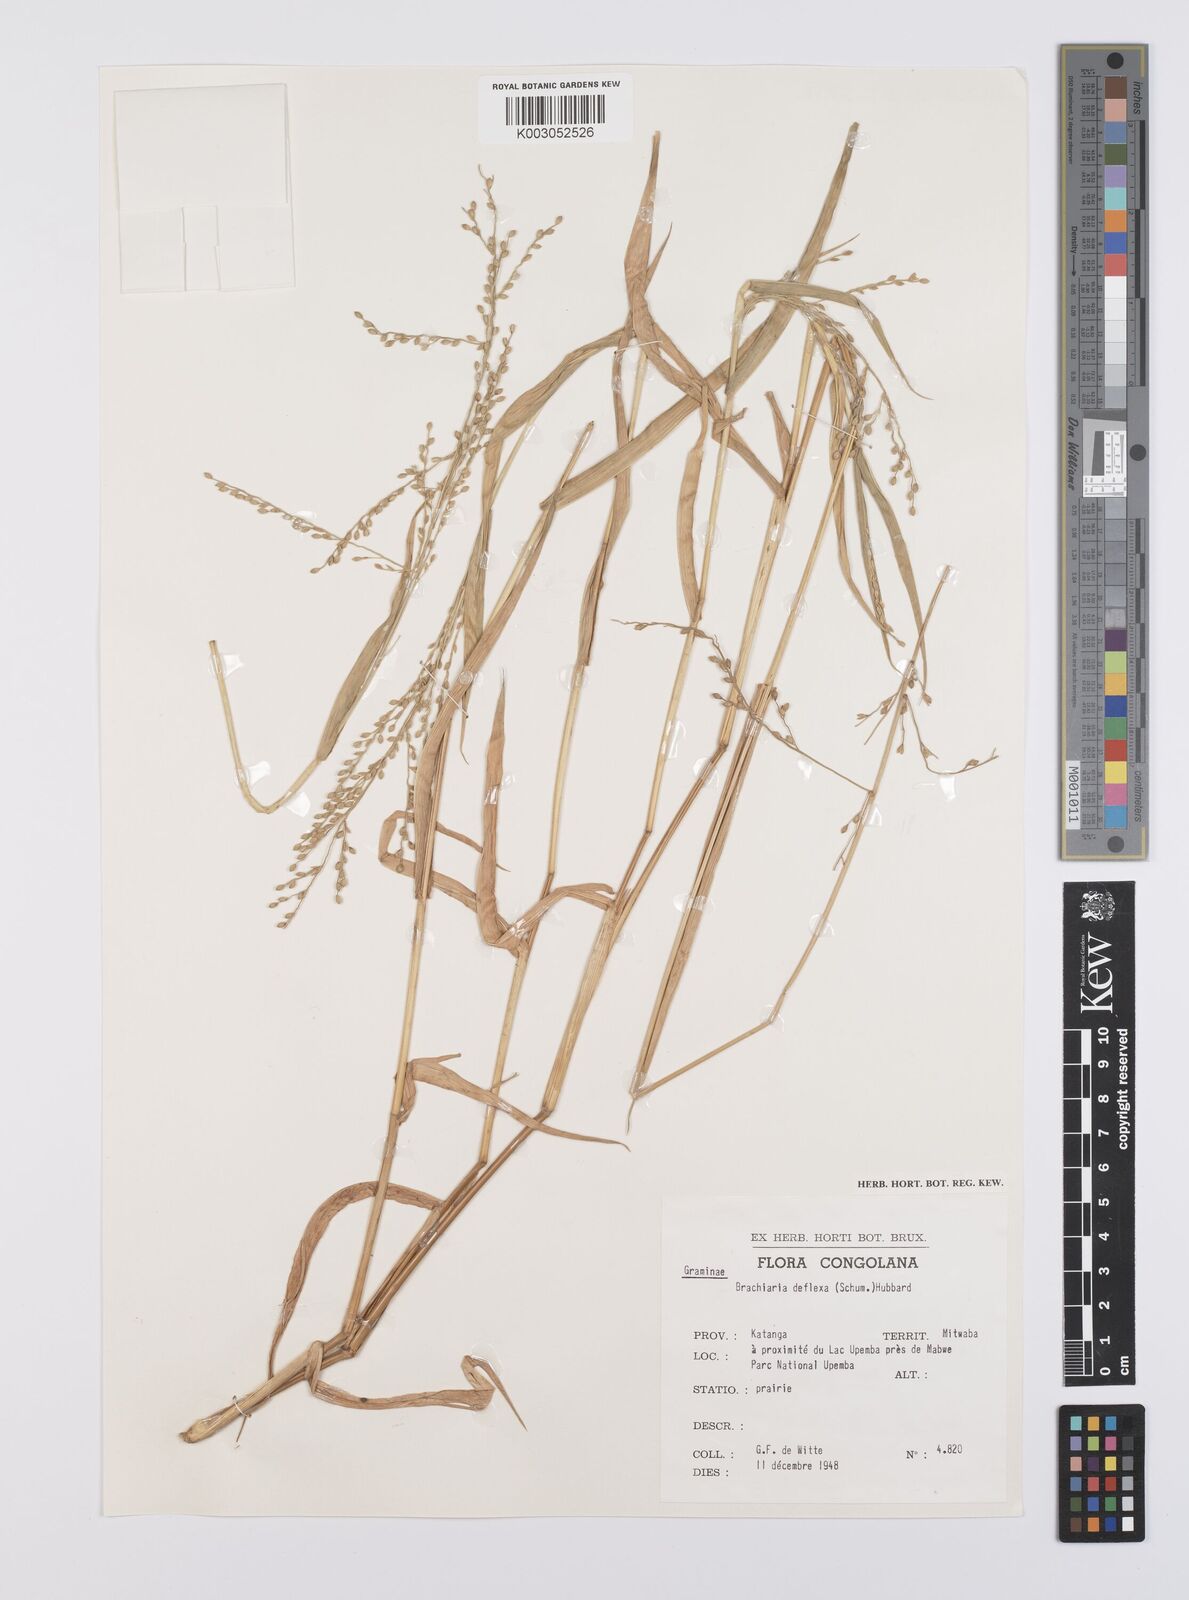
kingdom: Plantae
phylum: Tracheophyta
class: Liliopsida
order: Poales
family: Poaceae
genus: Urochloa
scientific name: Urochloa deflexa
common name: Guinea millet
